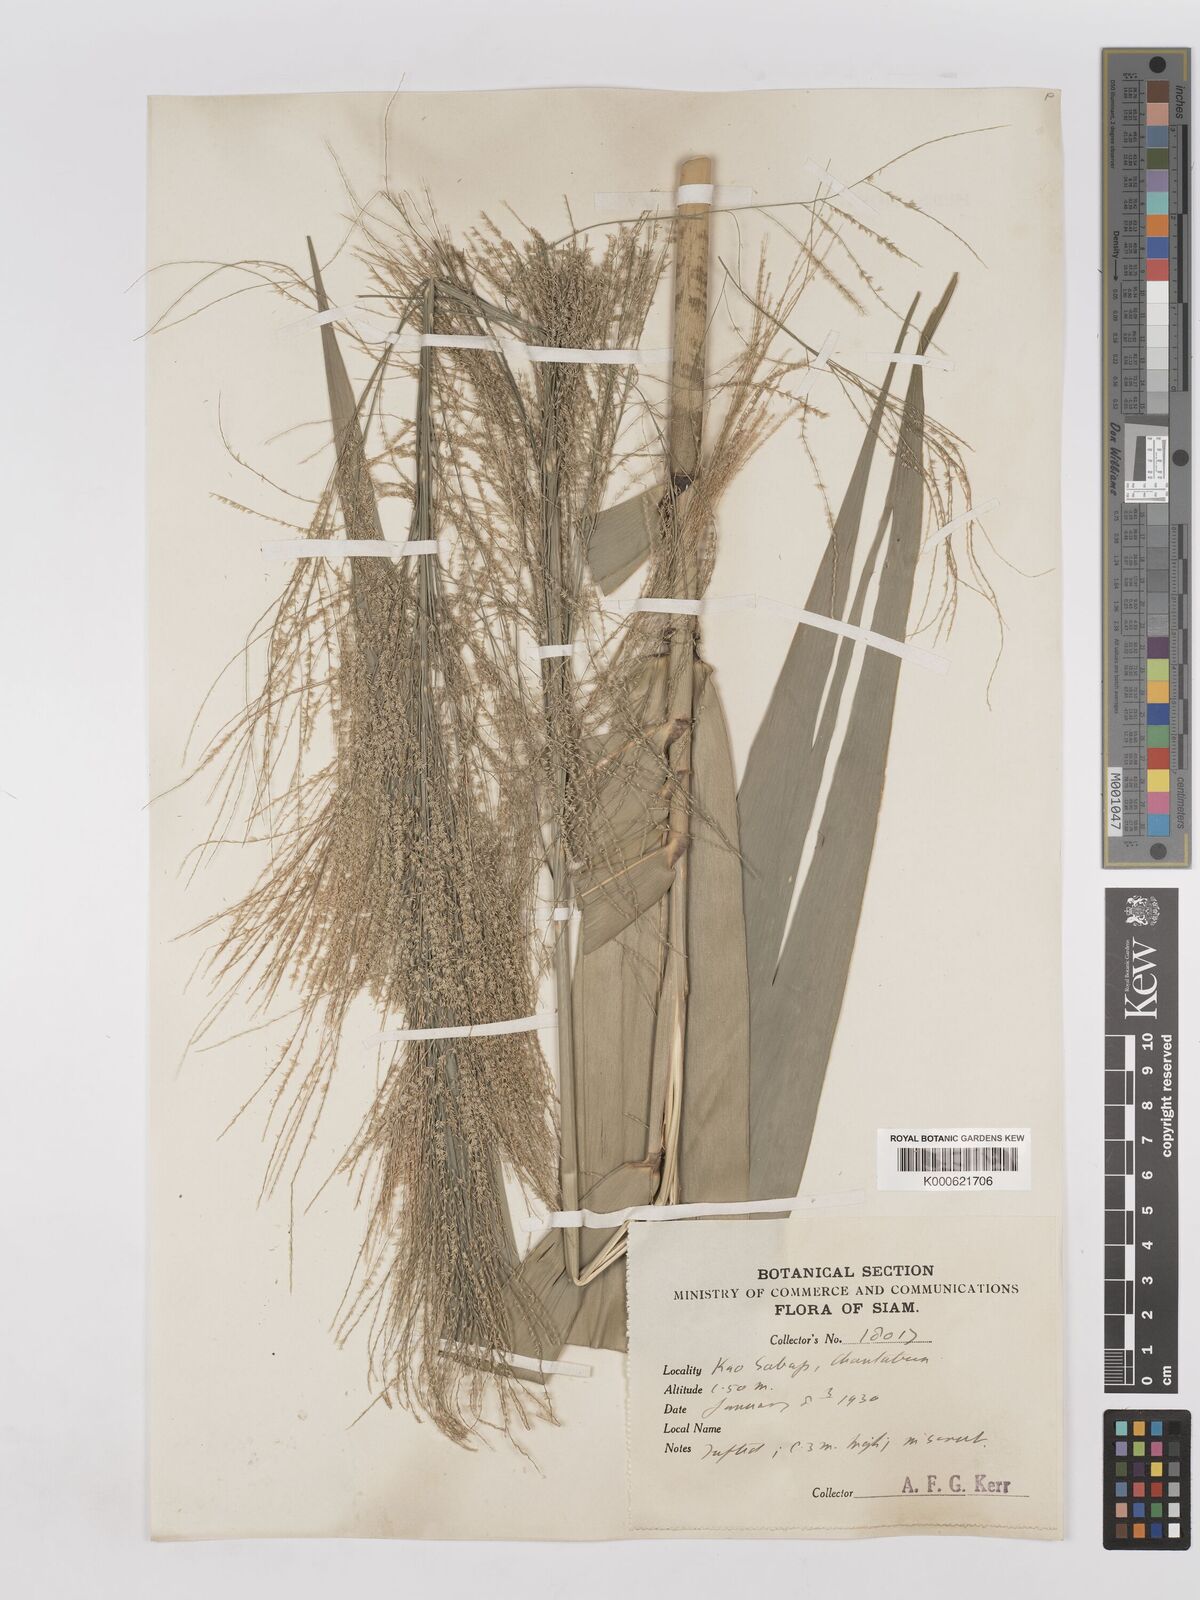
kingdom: Plantae
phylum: Tracheophyta
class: Liliopsida
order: Poales
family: Poaceae
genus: Thysanolaena
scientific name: Thysanolaena latifolia
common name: Tiger grass
